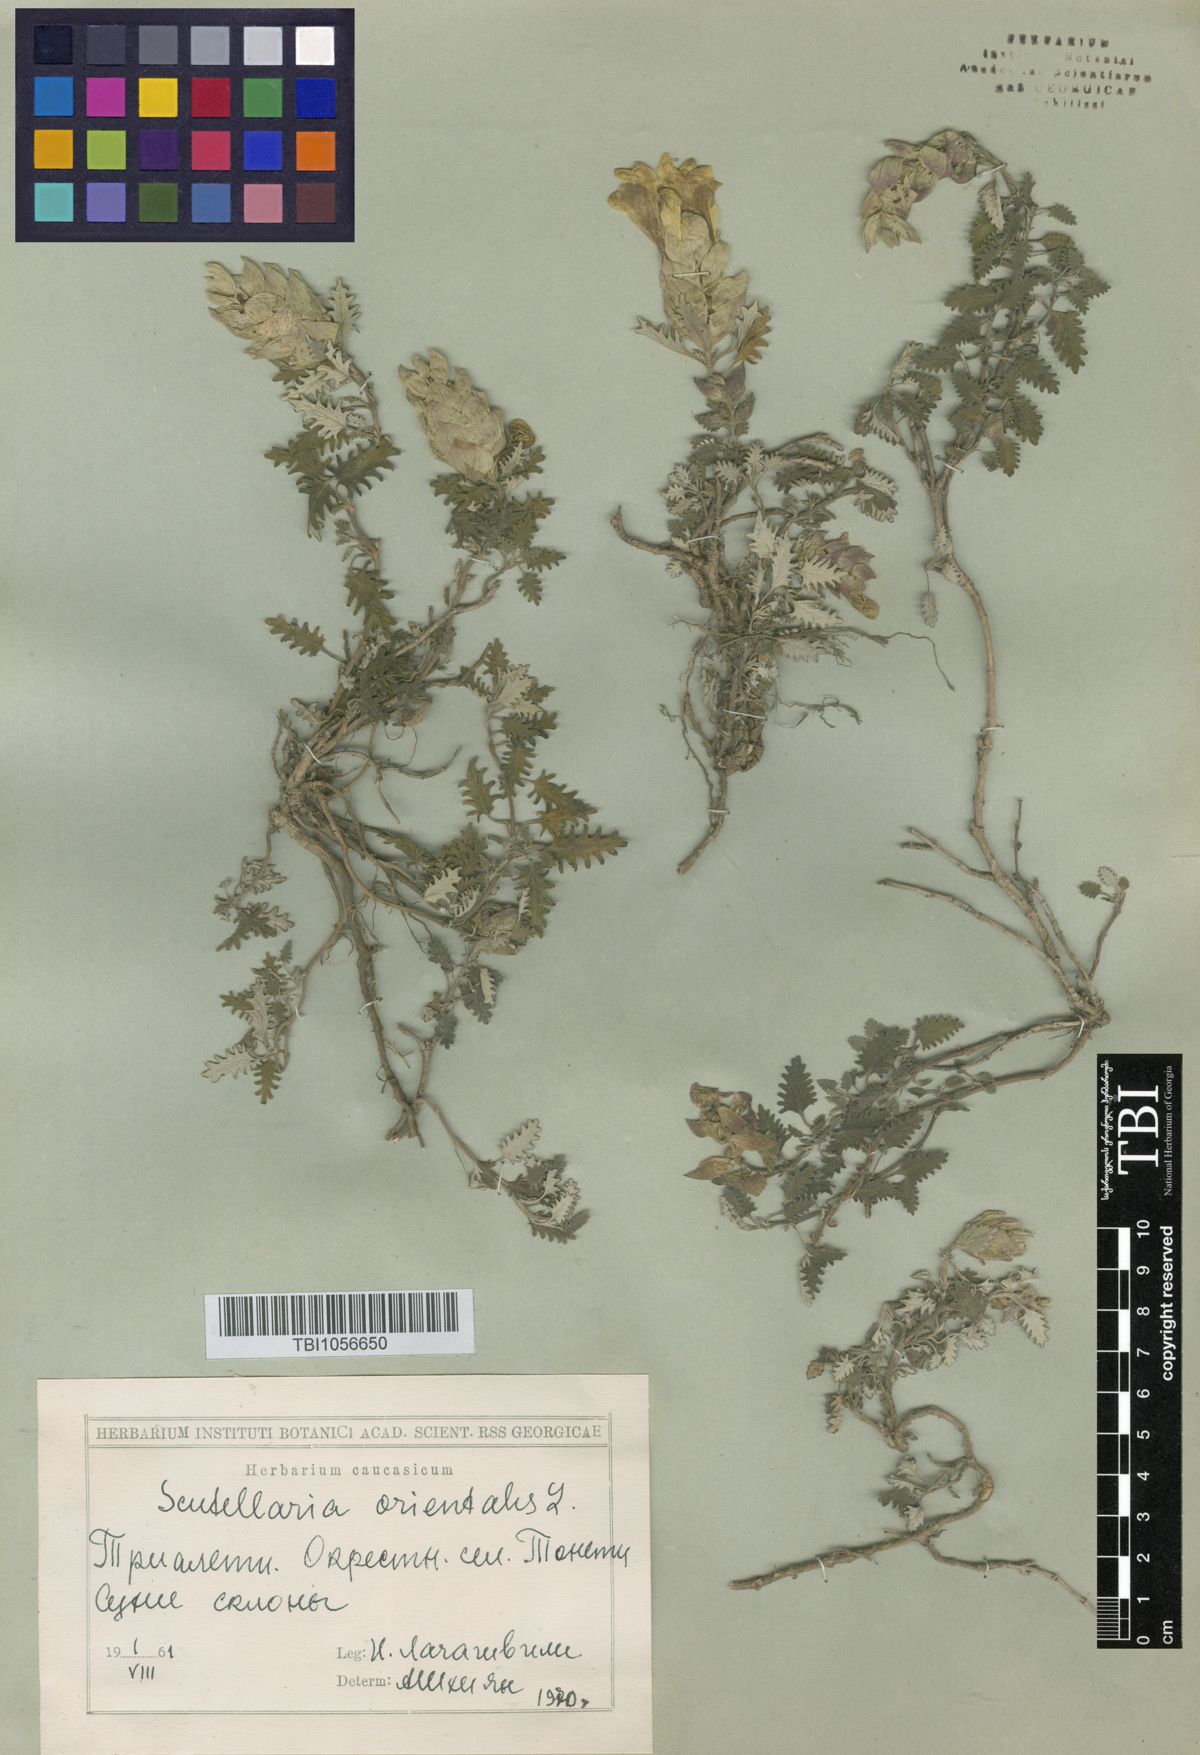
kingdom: Plantae
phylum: Tracheophyta
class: Magnoliopsida
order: Lamiales
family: Lamiaceae
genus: Scutellaria
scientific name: Scutellaria orientalis
